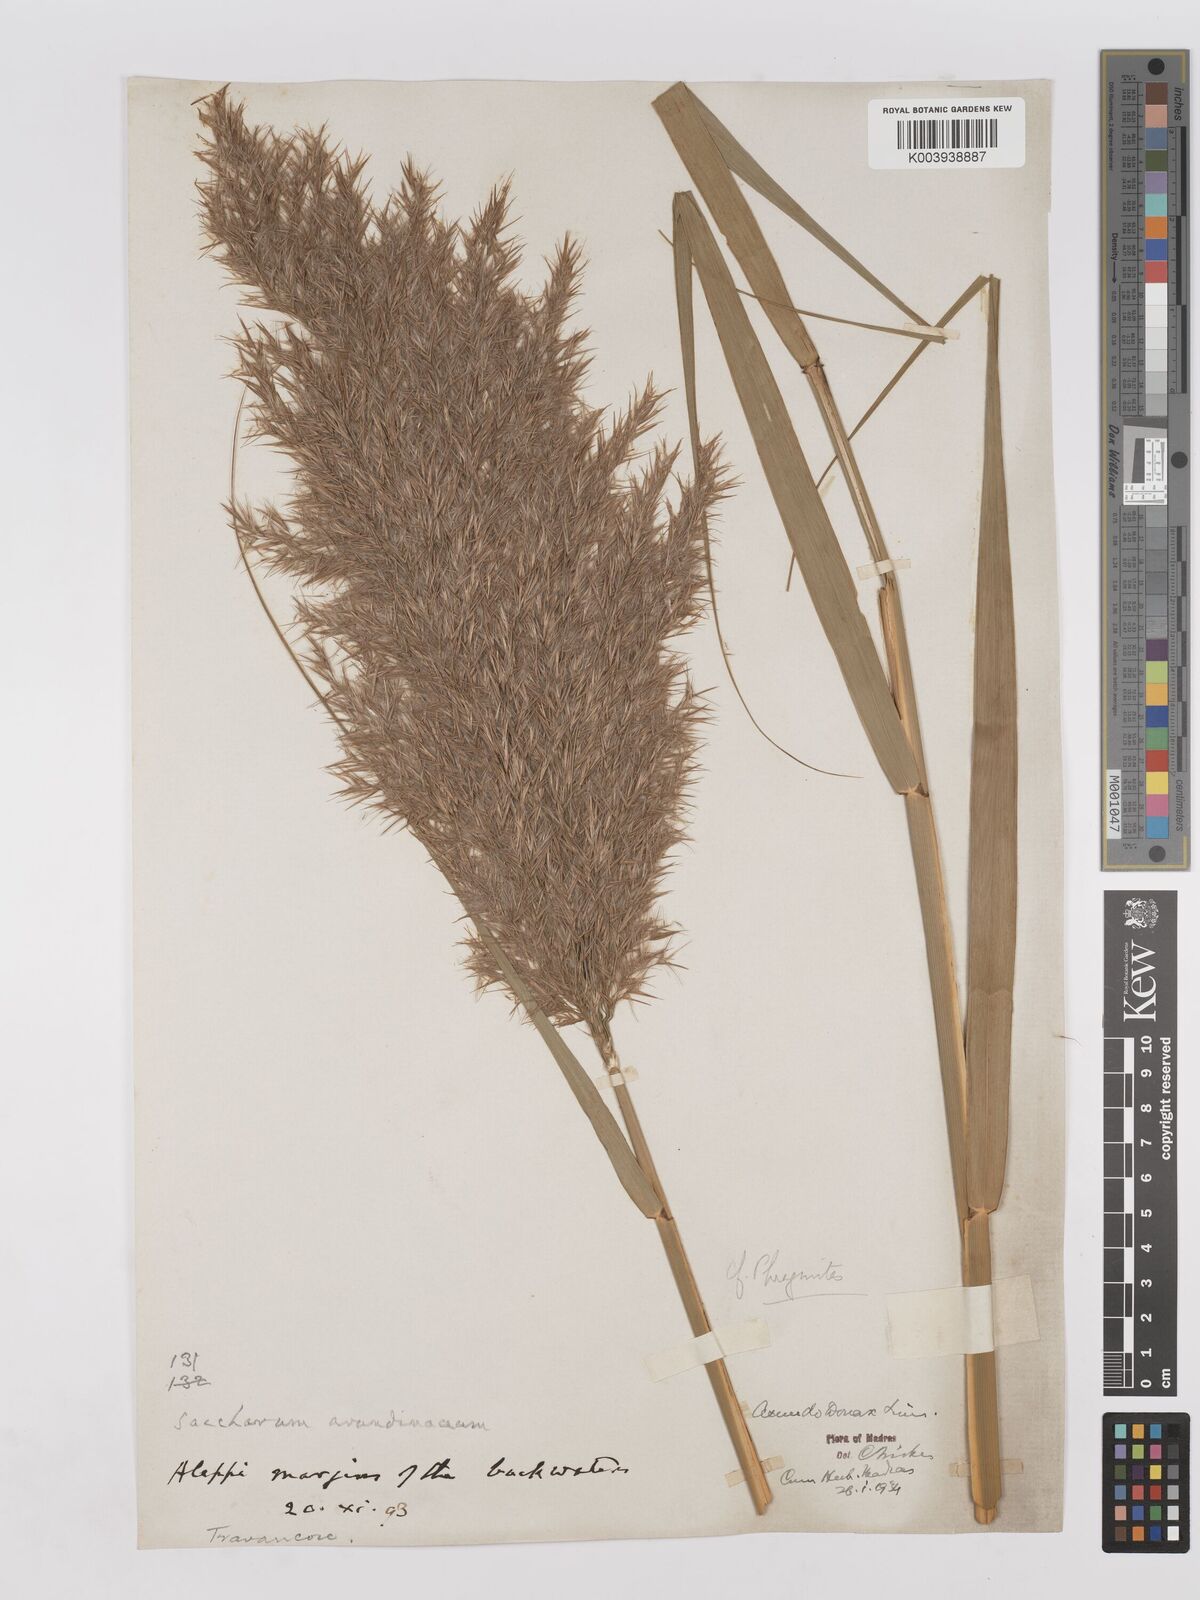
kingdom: Plantae
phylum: Tracheophyta
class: Liliopsida
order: Poales
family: Poaceae
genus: Phragmites
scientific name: Phragmites karka
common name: Tropical reed
